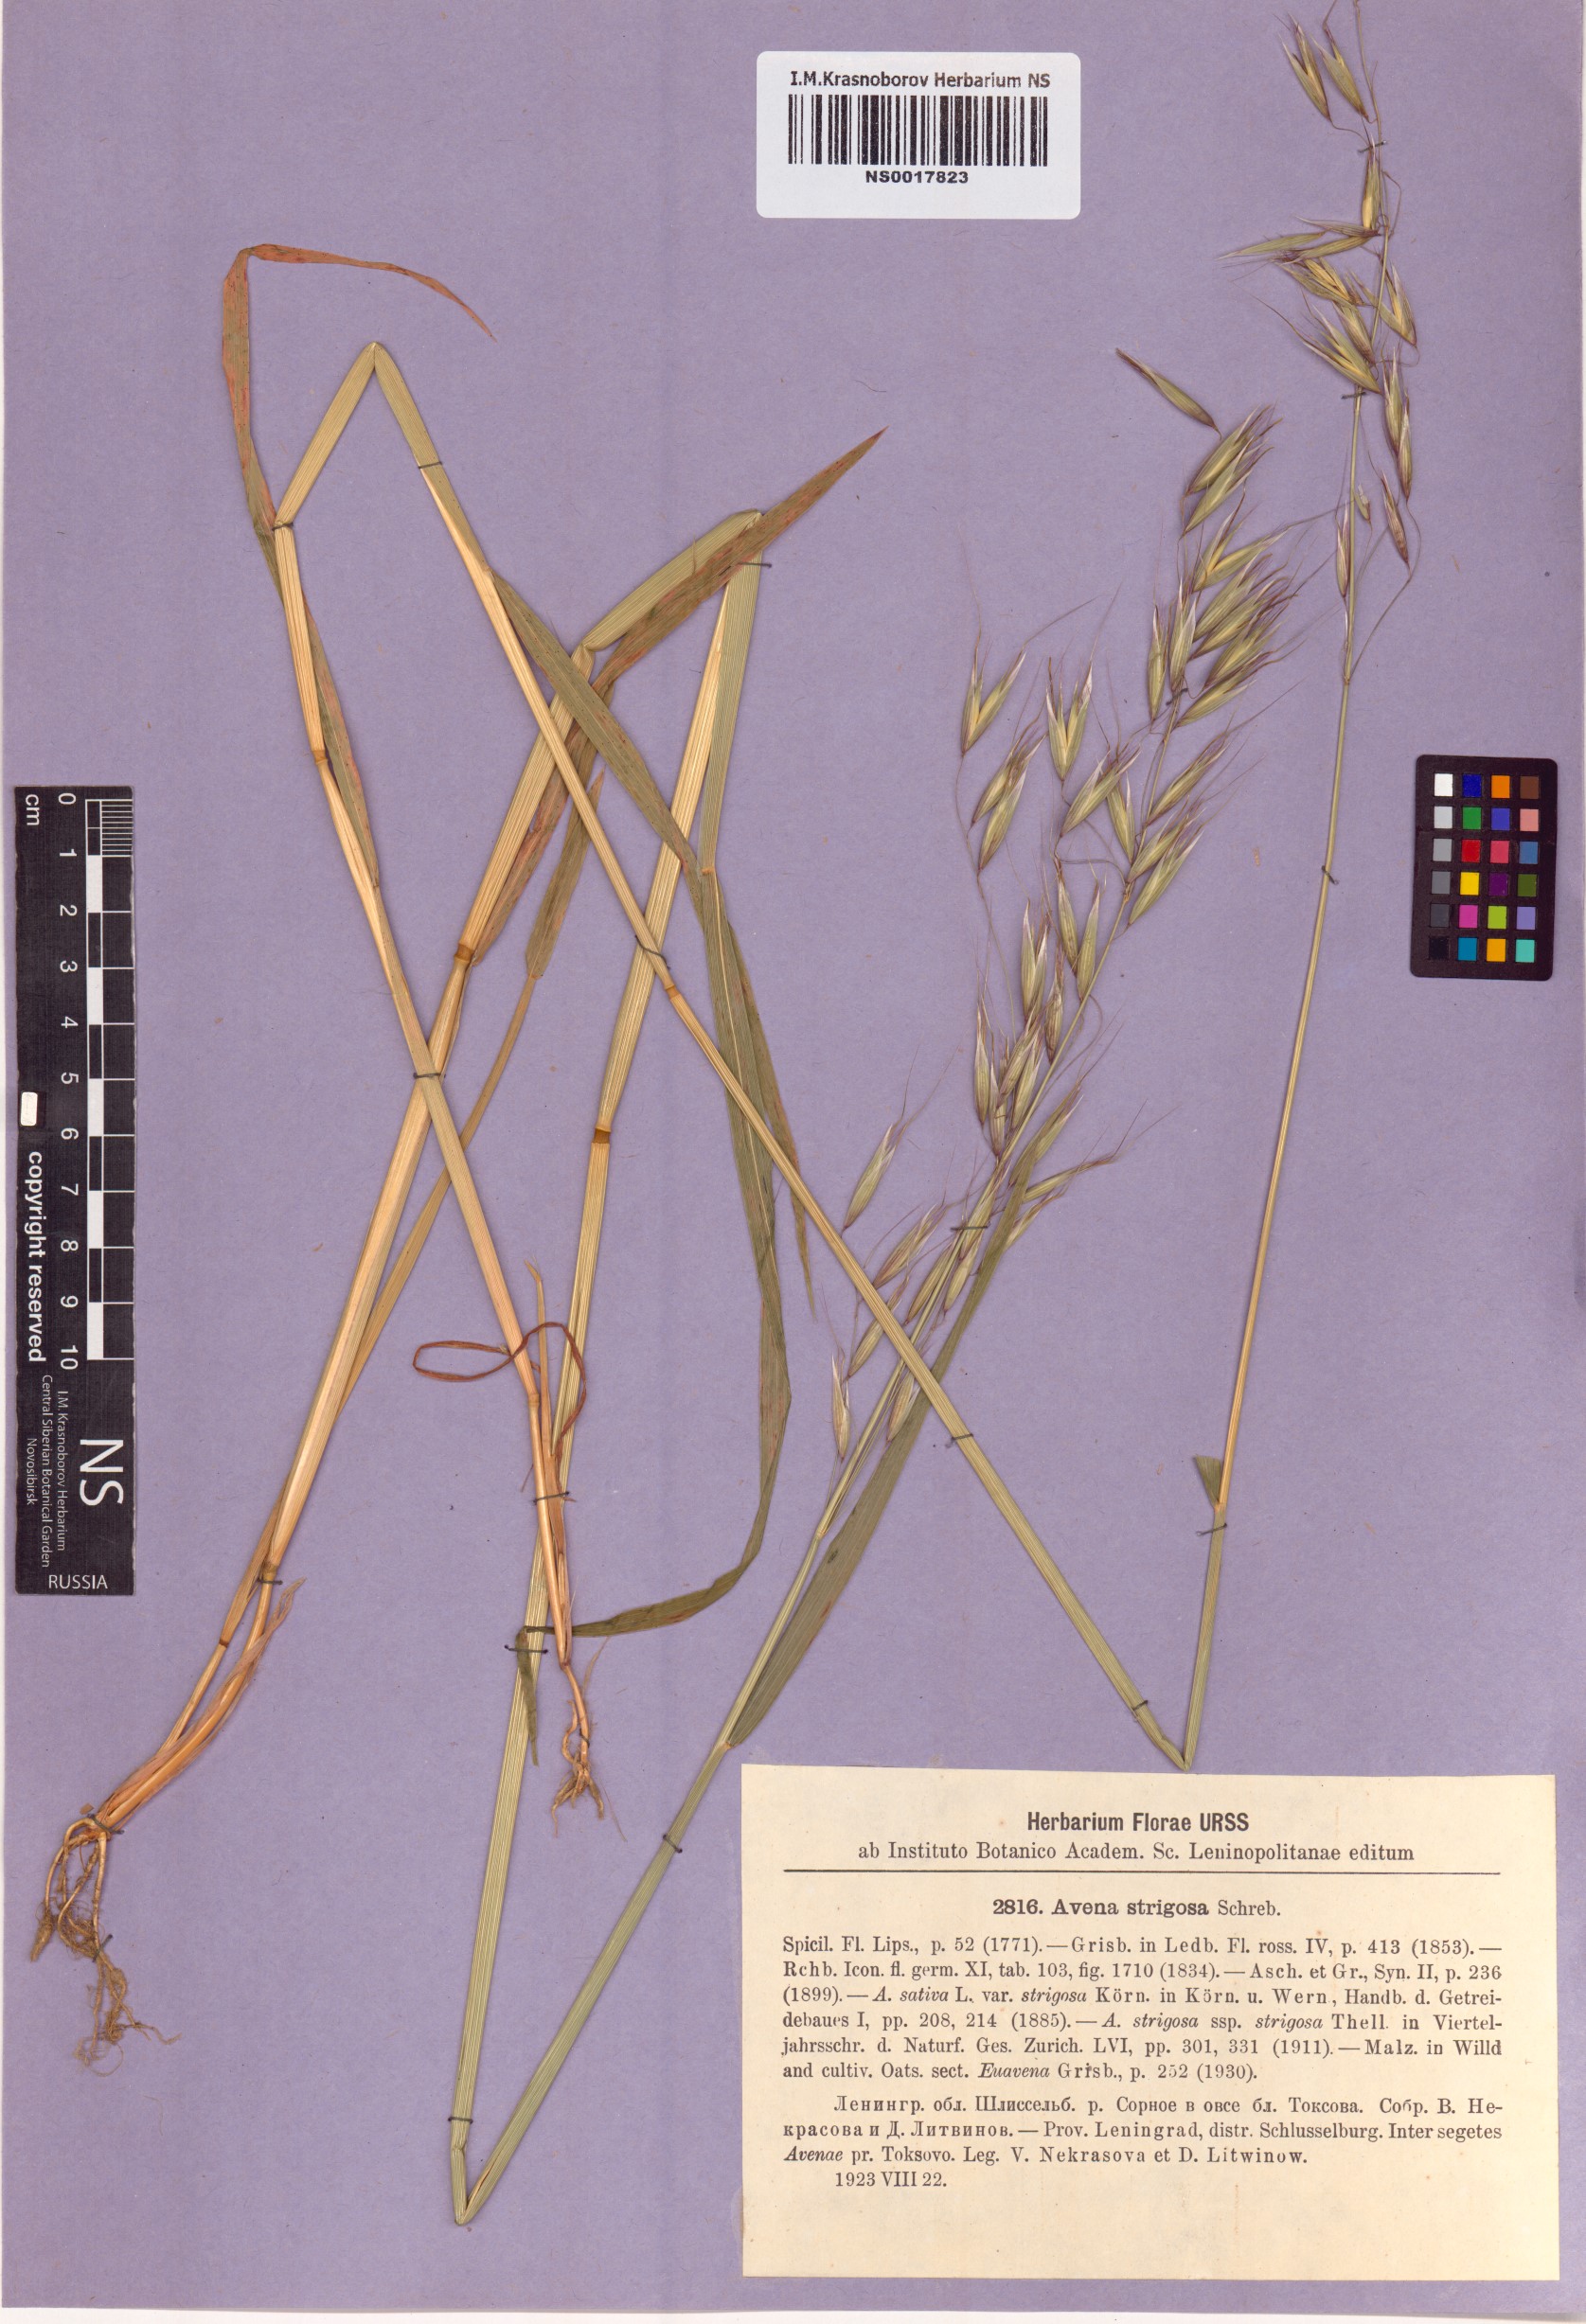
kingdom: Plantae
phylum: Tracheophyta
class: Liliopsida
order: Poales
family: Poaceae
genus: Avena
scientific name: Avena strigosa
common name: Bristle oat
